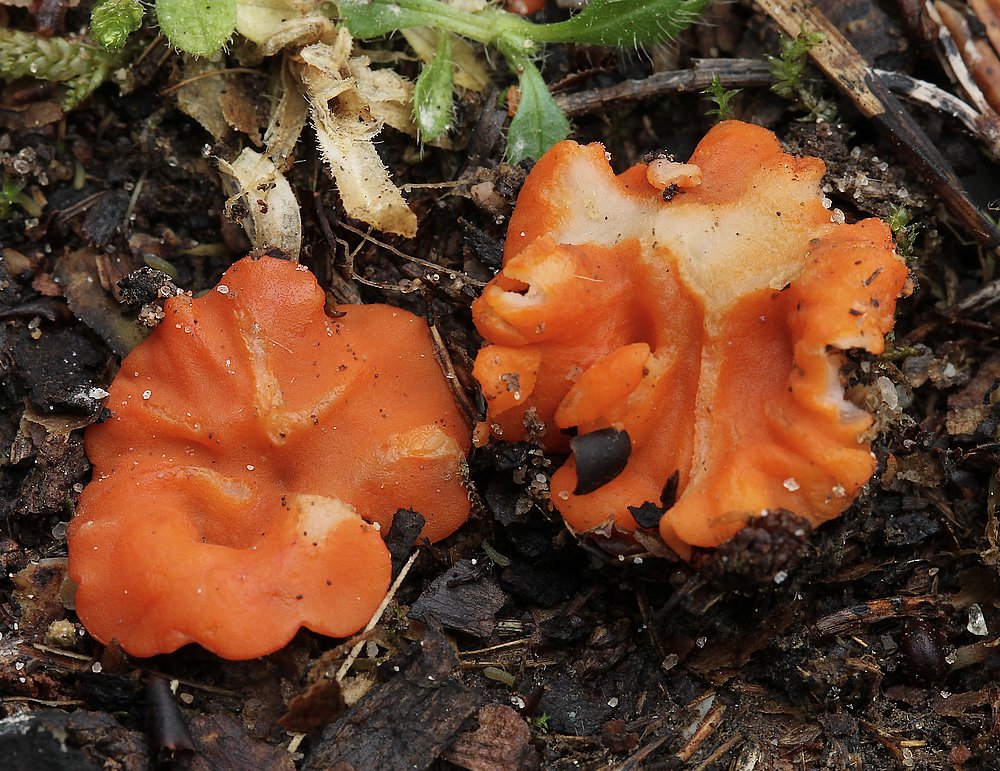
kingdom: Fungi
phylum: Ascomycota
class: Pezizomycetes
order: Pezizales
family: Pulvinulaceae
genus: Pulvinula
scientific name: Pulvinula miltina
